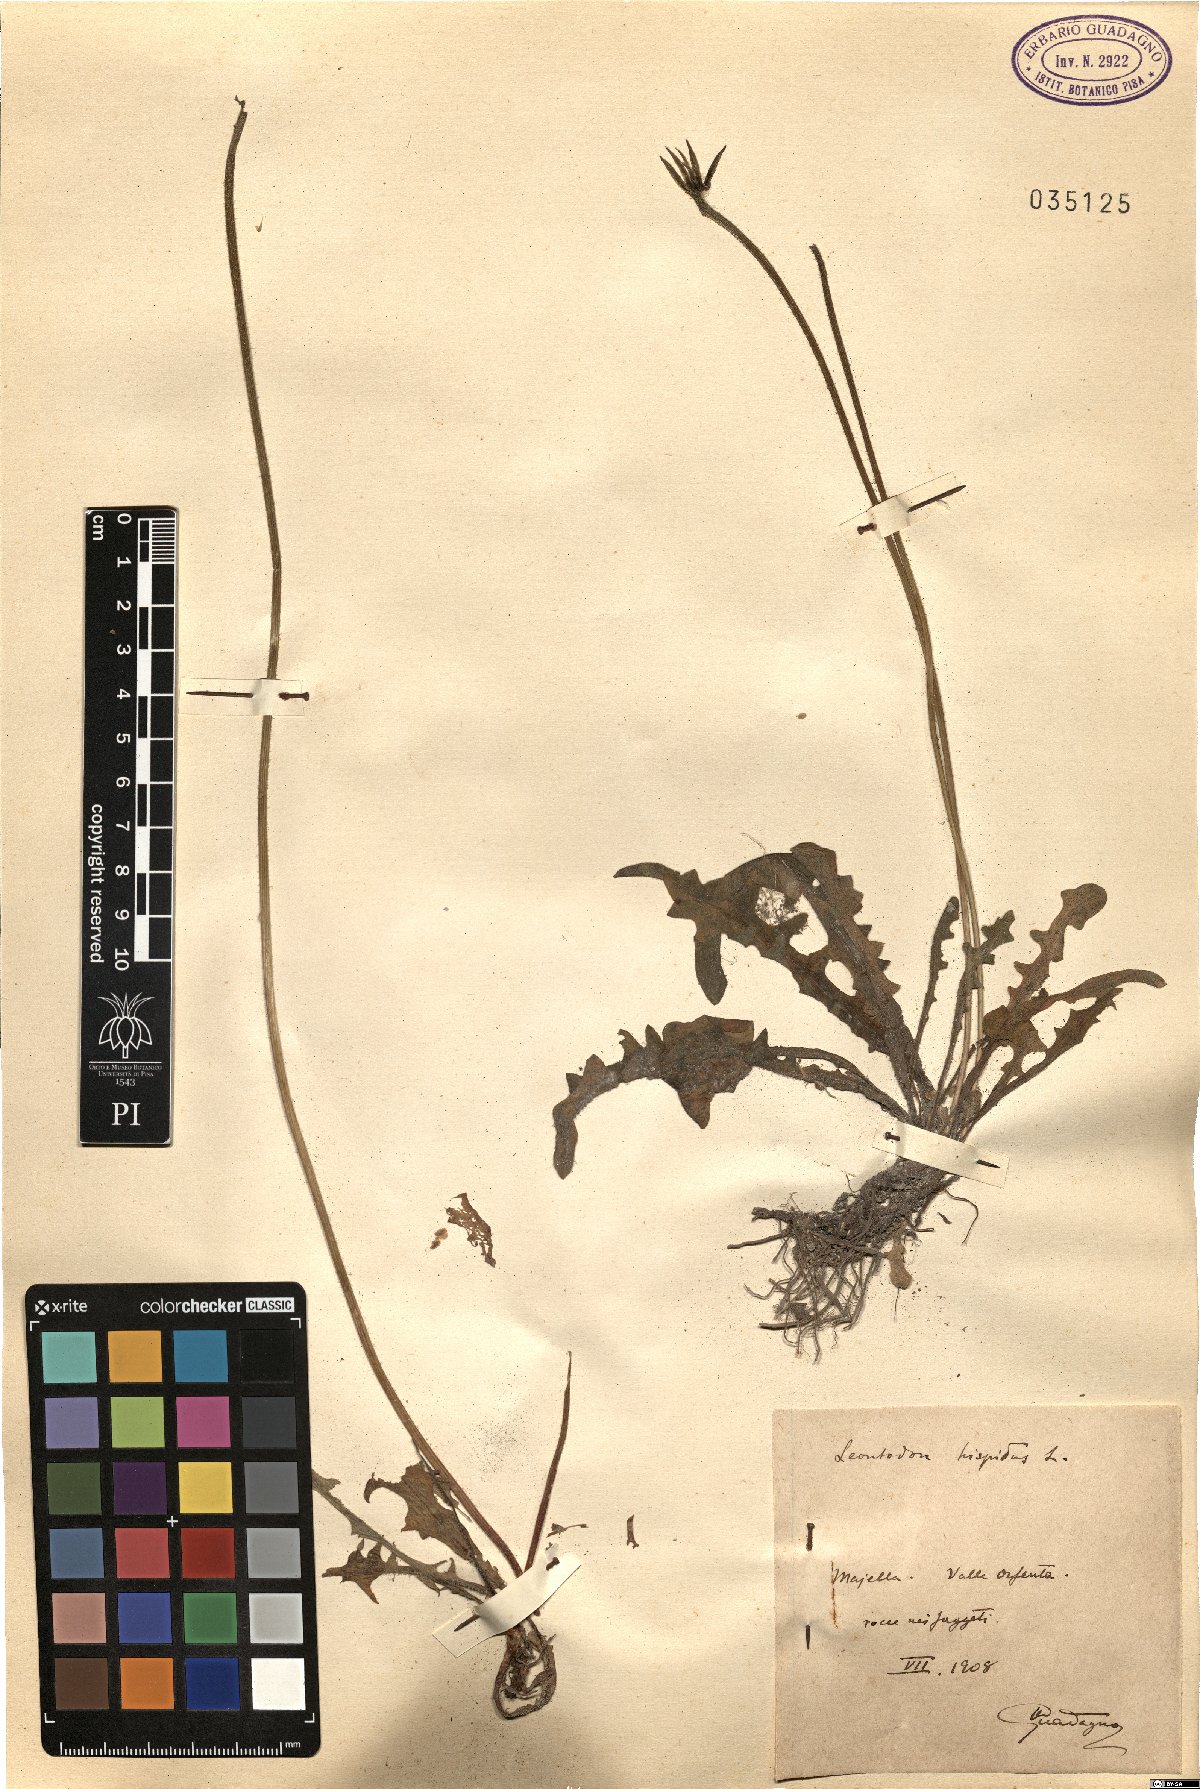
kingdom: Plantae
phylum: Tracheophyta
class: Magnoliopsida
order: Asterales
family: Asteraceae
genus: Leontodon
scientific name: Leontodon hispidus
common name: Rough hawkbit
